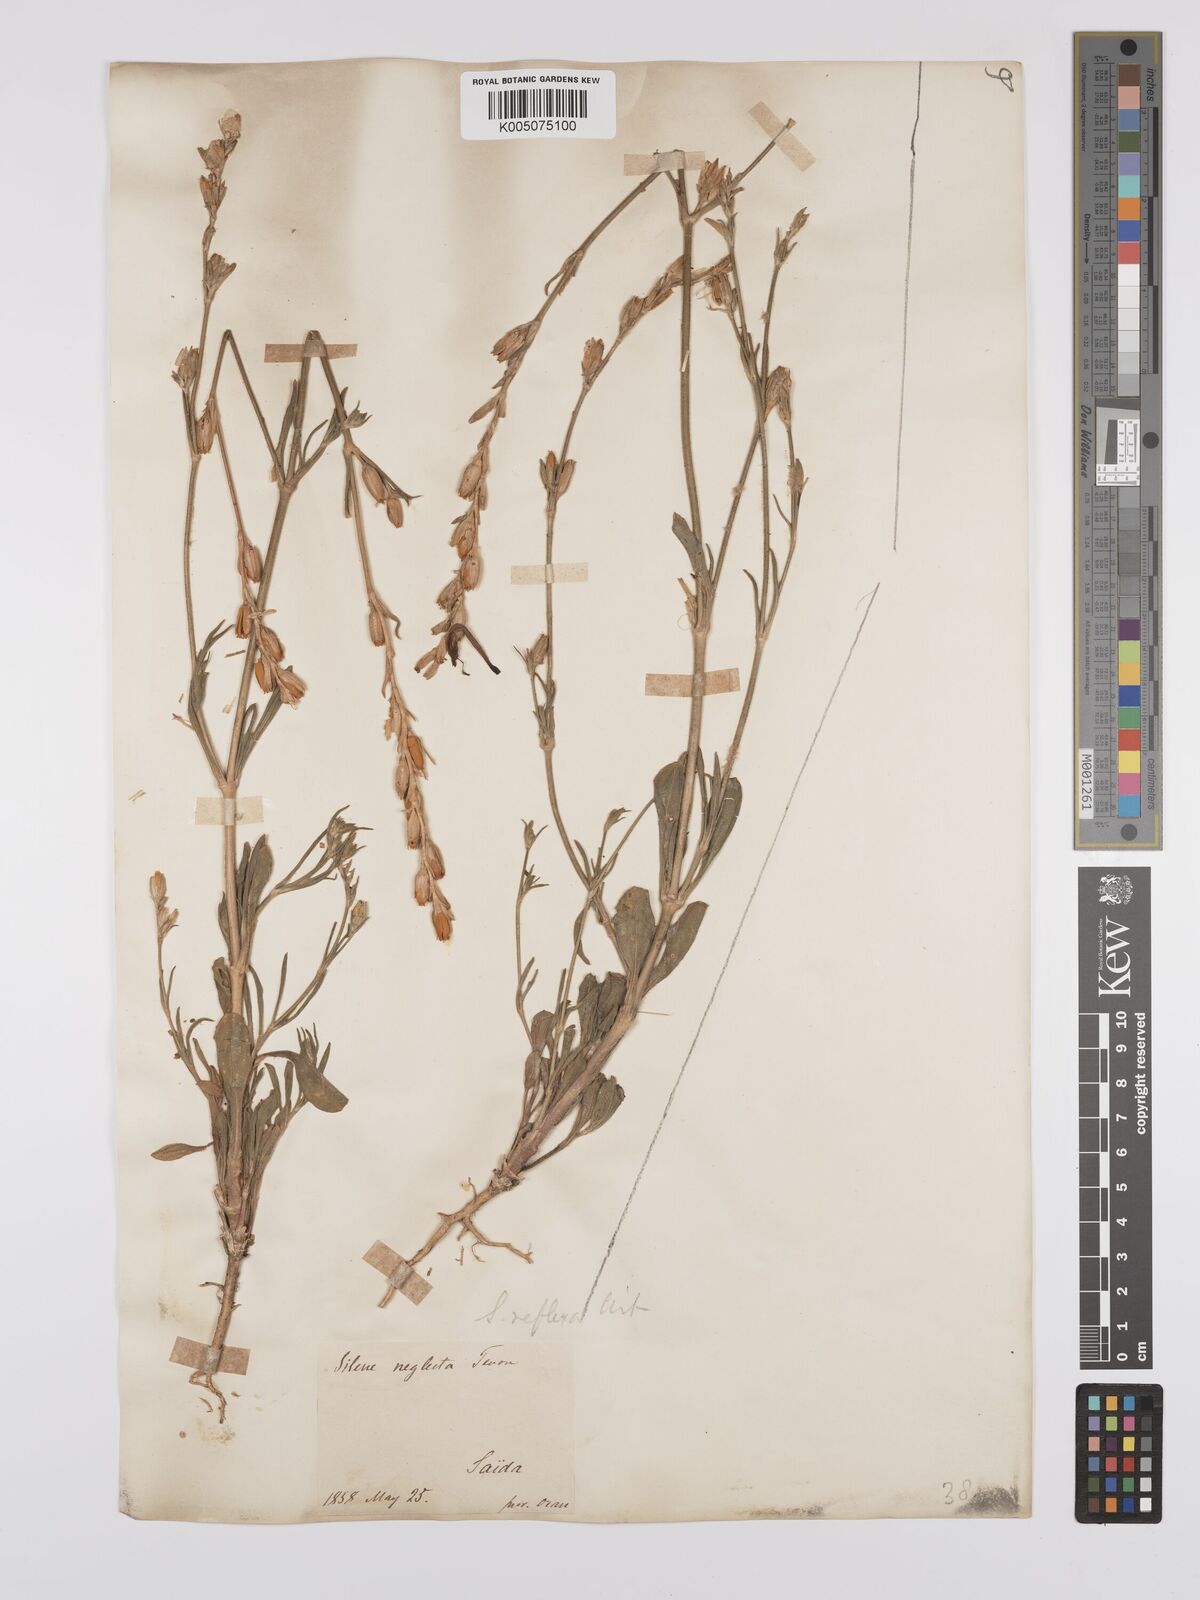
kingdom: Plantae
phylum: Tracheophyta
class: Magnoliopsida
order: Caryophyllales
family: Caryophyllaceae
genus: Silene
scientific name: Silene neglecta
